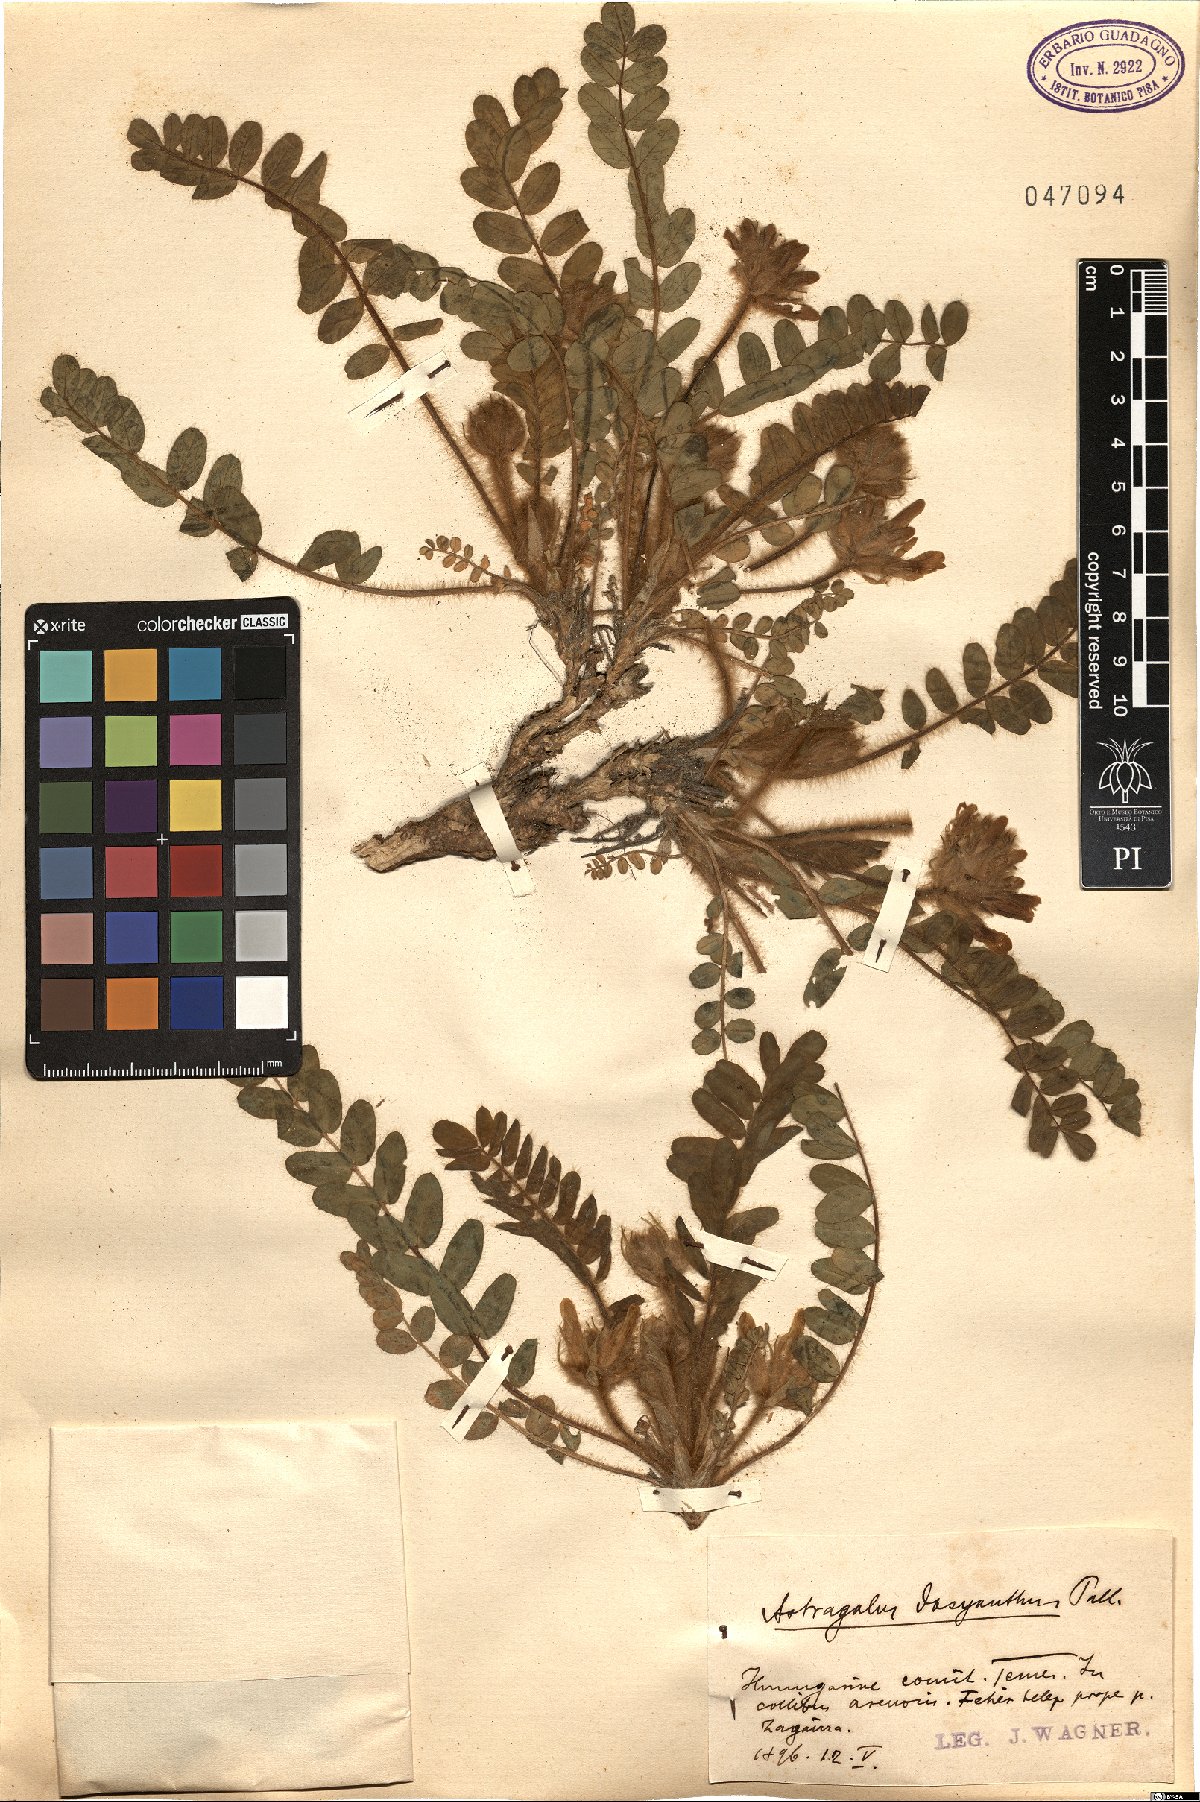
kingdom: Plantae
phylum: Tracheophyta
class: Magnoliopsida
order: Fabales
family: Fabaceae
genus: Astragalus
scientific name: Astragalus dasyanthus
